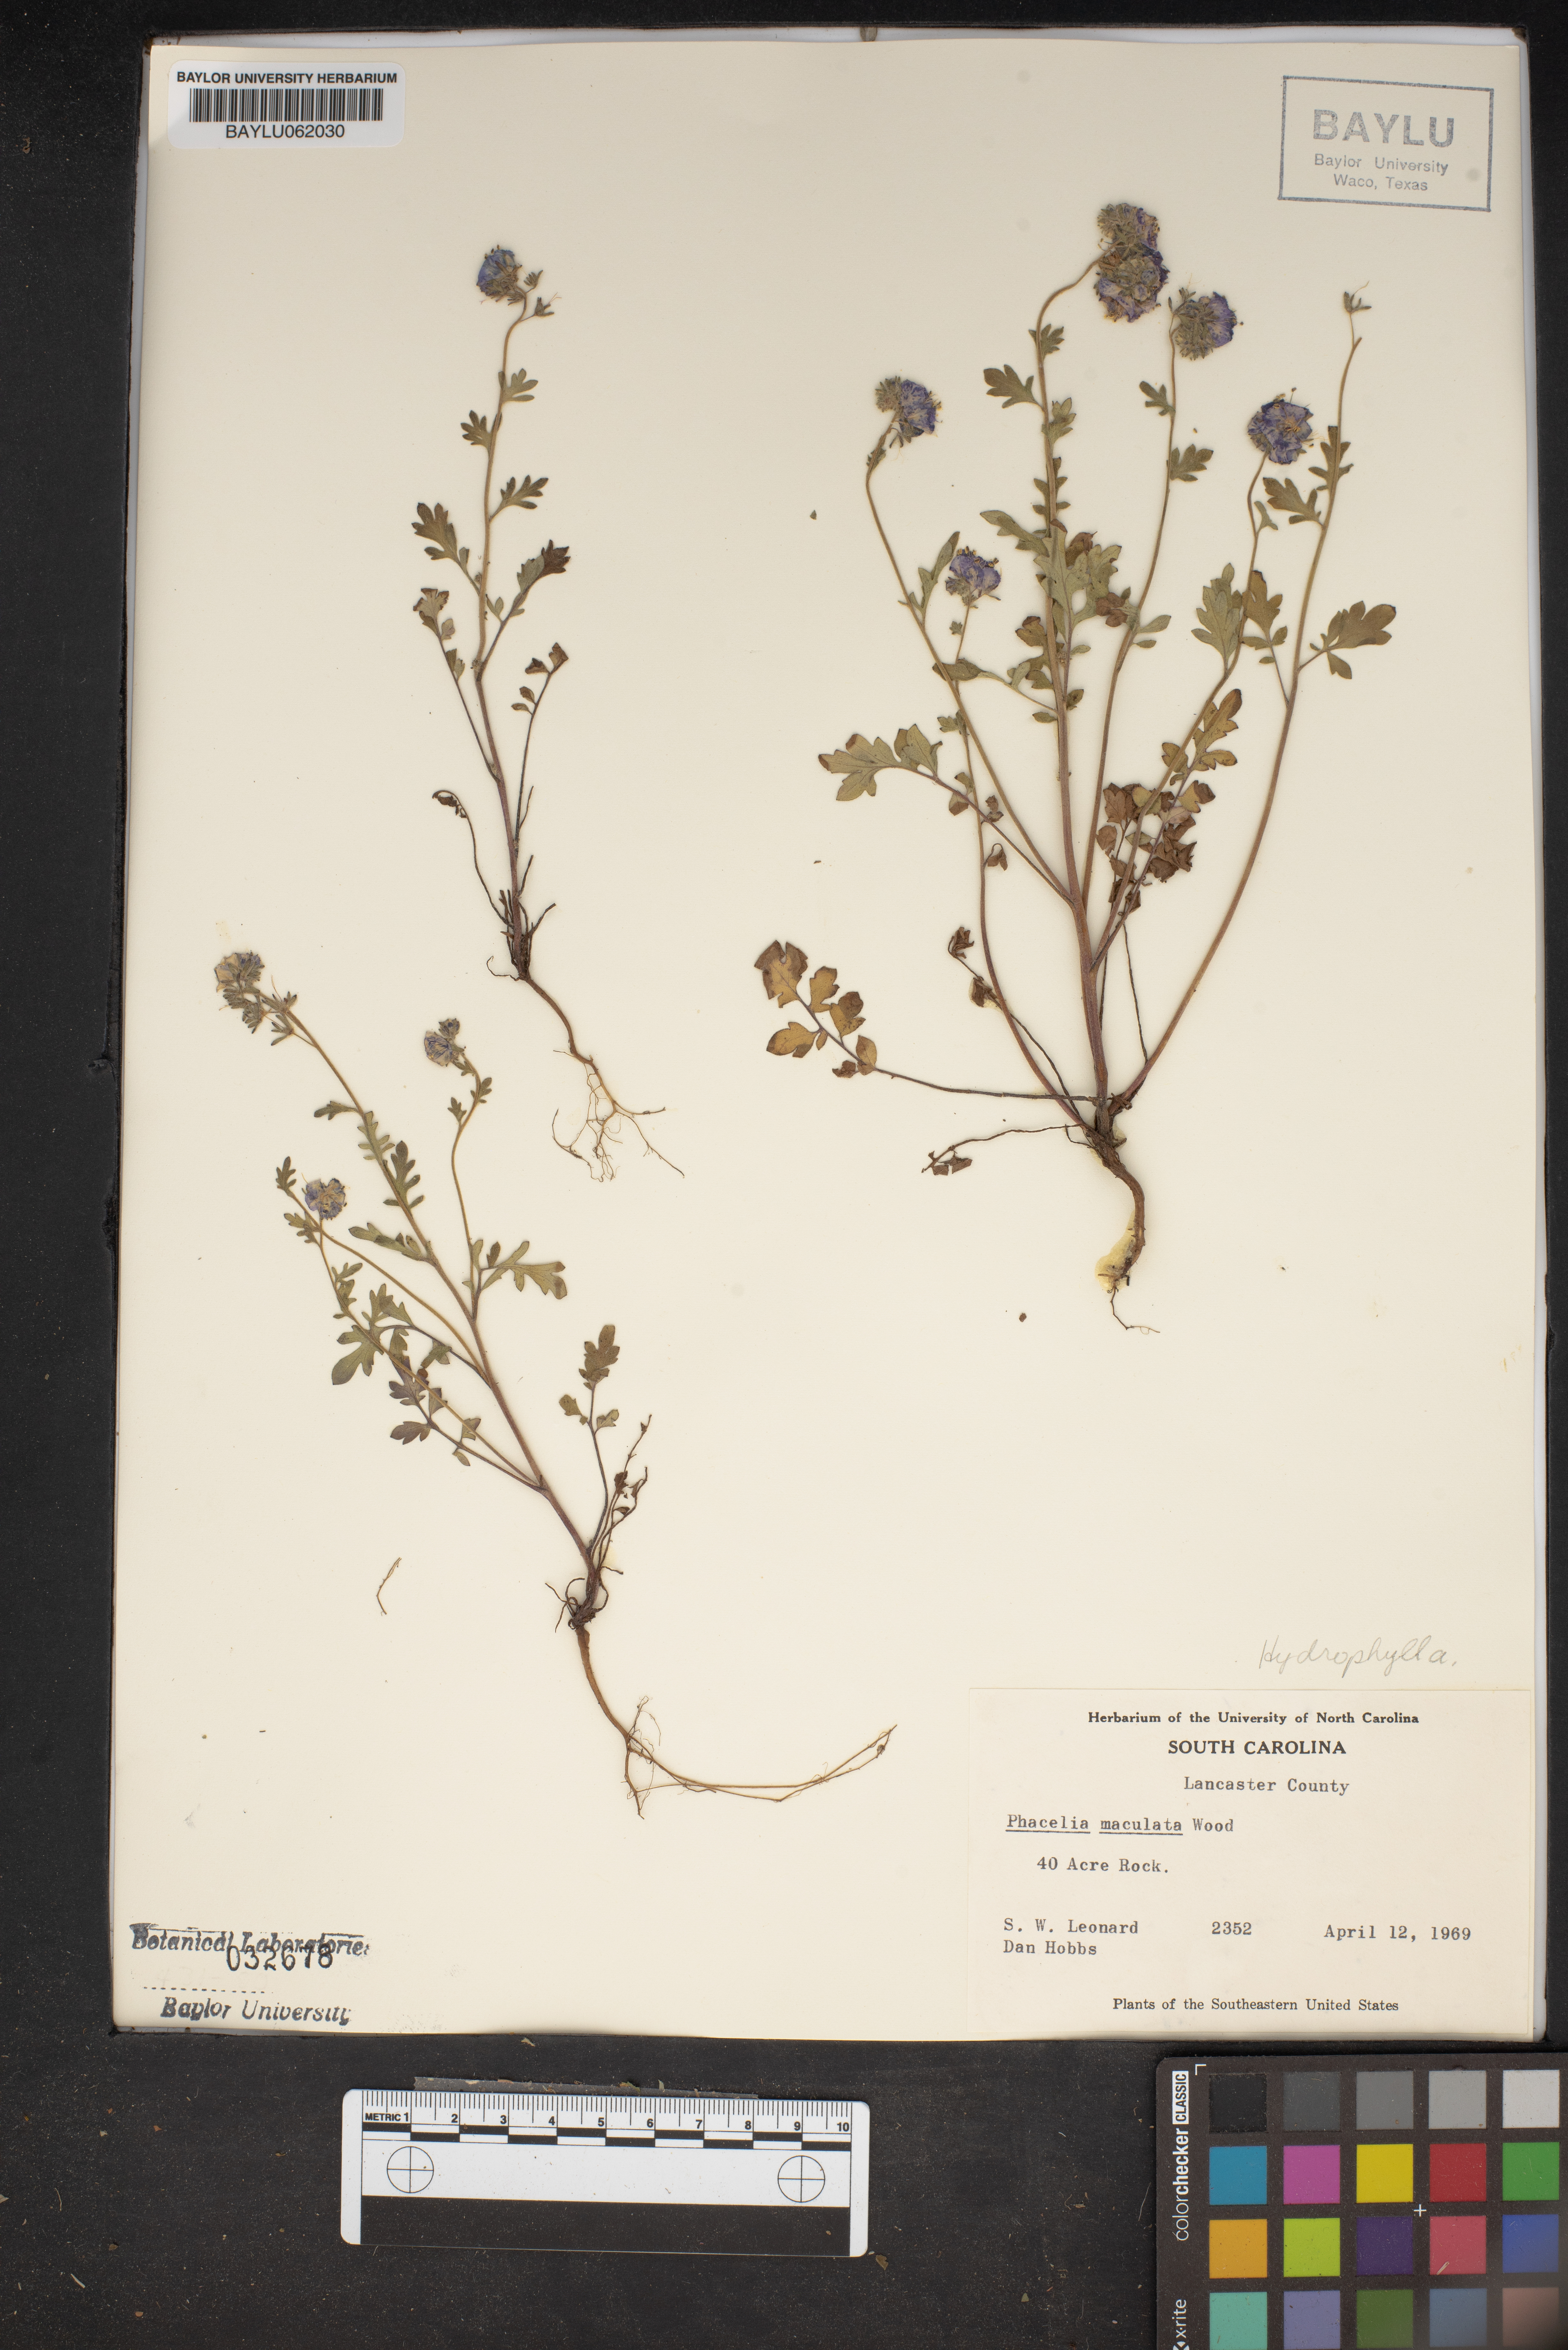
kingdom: Plantae
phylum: Tracheophyta
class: Magnoliopsida
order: Boraginales
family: Hydrophyllaceae
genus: Phacelia
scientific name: Phacelia maculata
